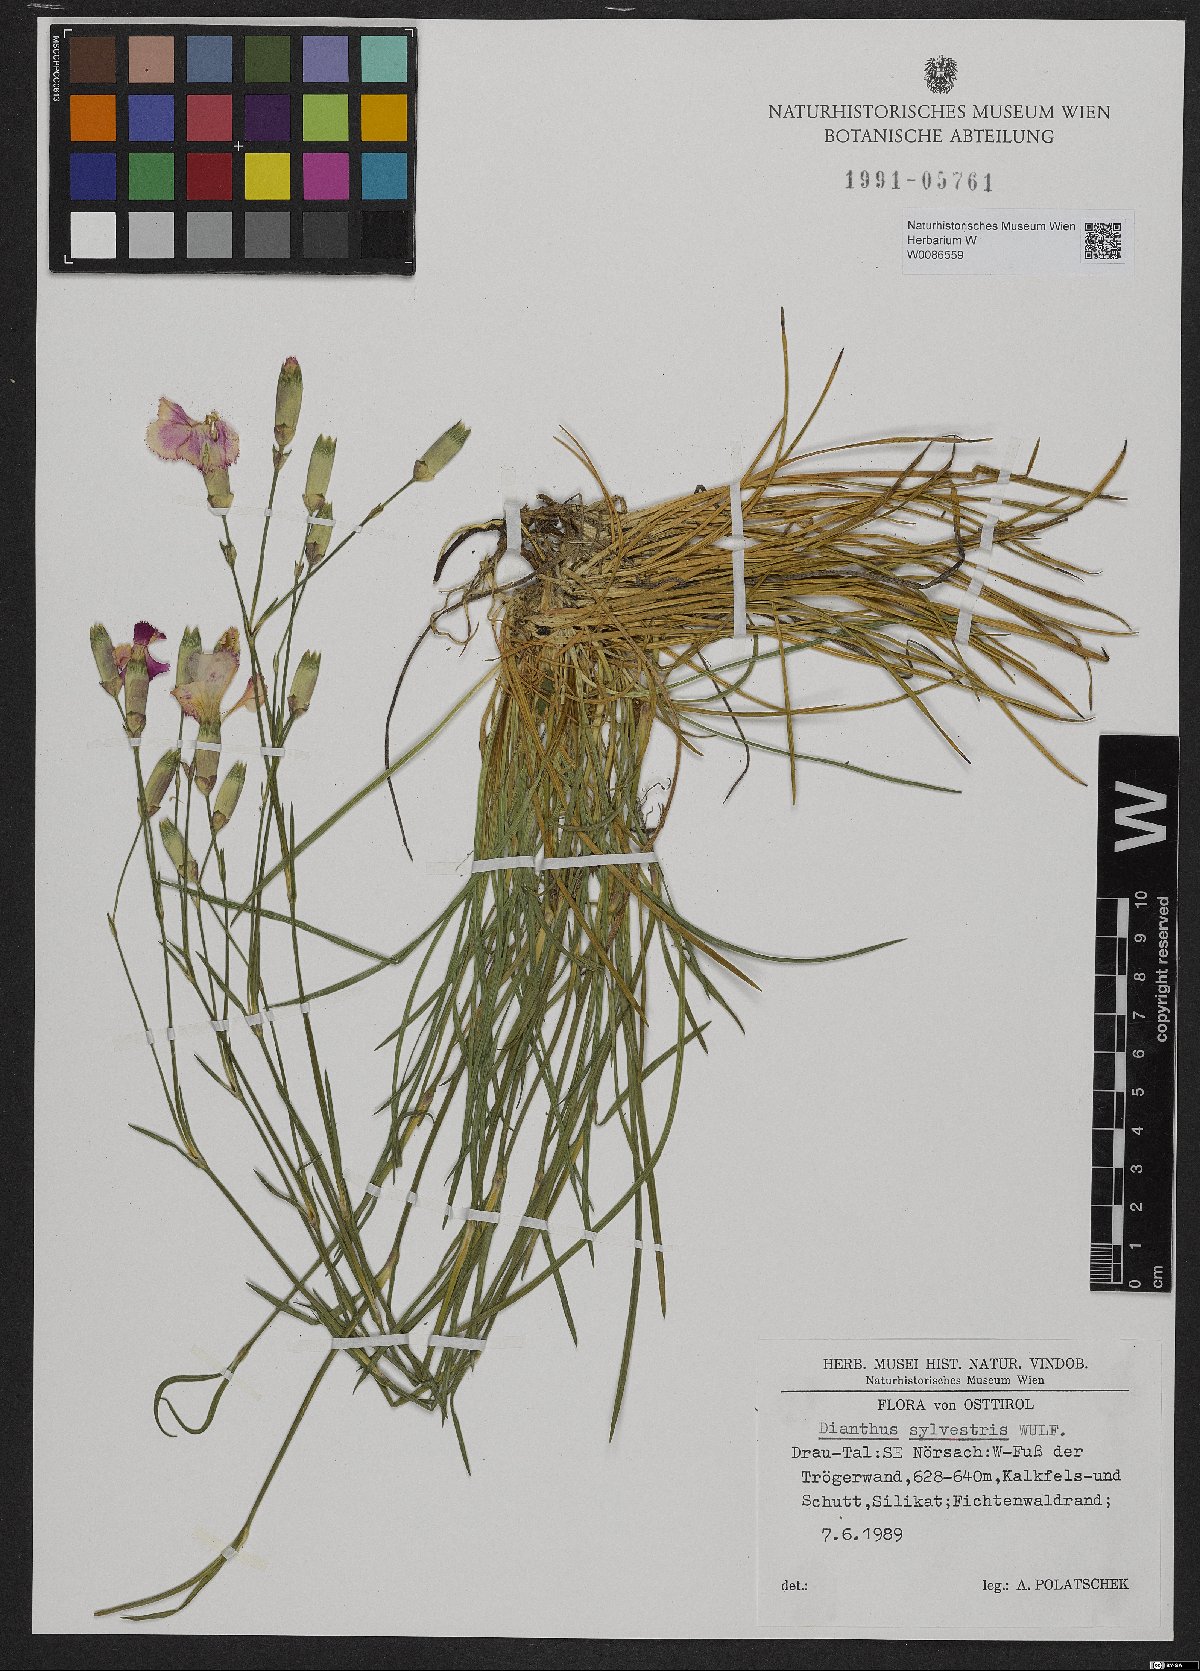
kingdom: Plantae
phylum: Tracheophyta
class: Magnoliopsida
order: Caryophyllales
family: Caryophyllaceae
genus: Dianthus
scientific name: Dianthus sylvestris
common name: Wood pink
